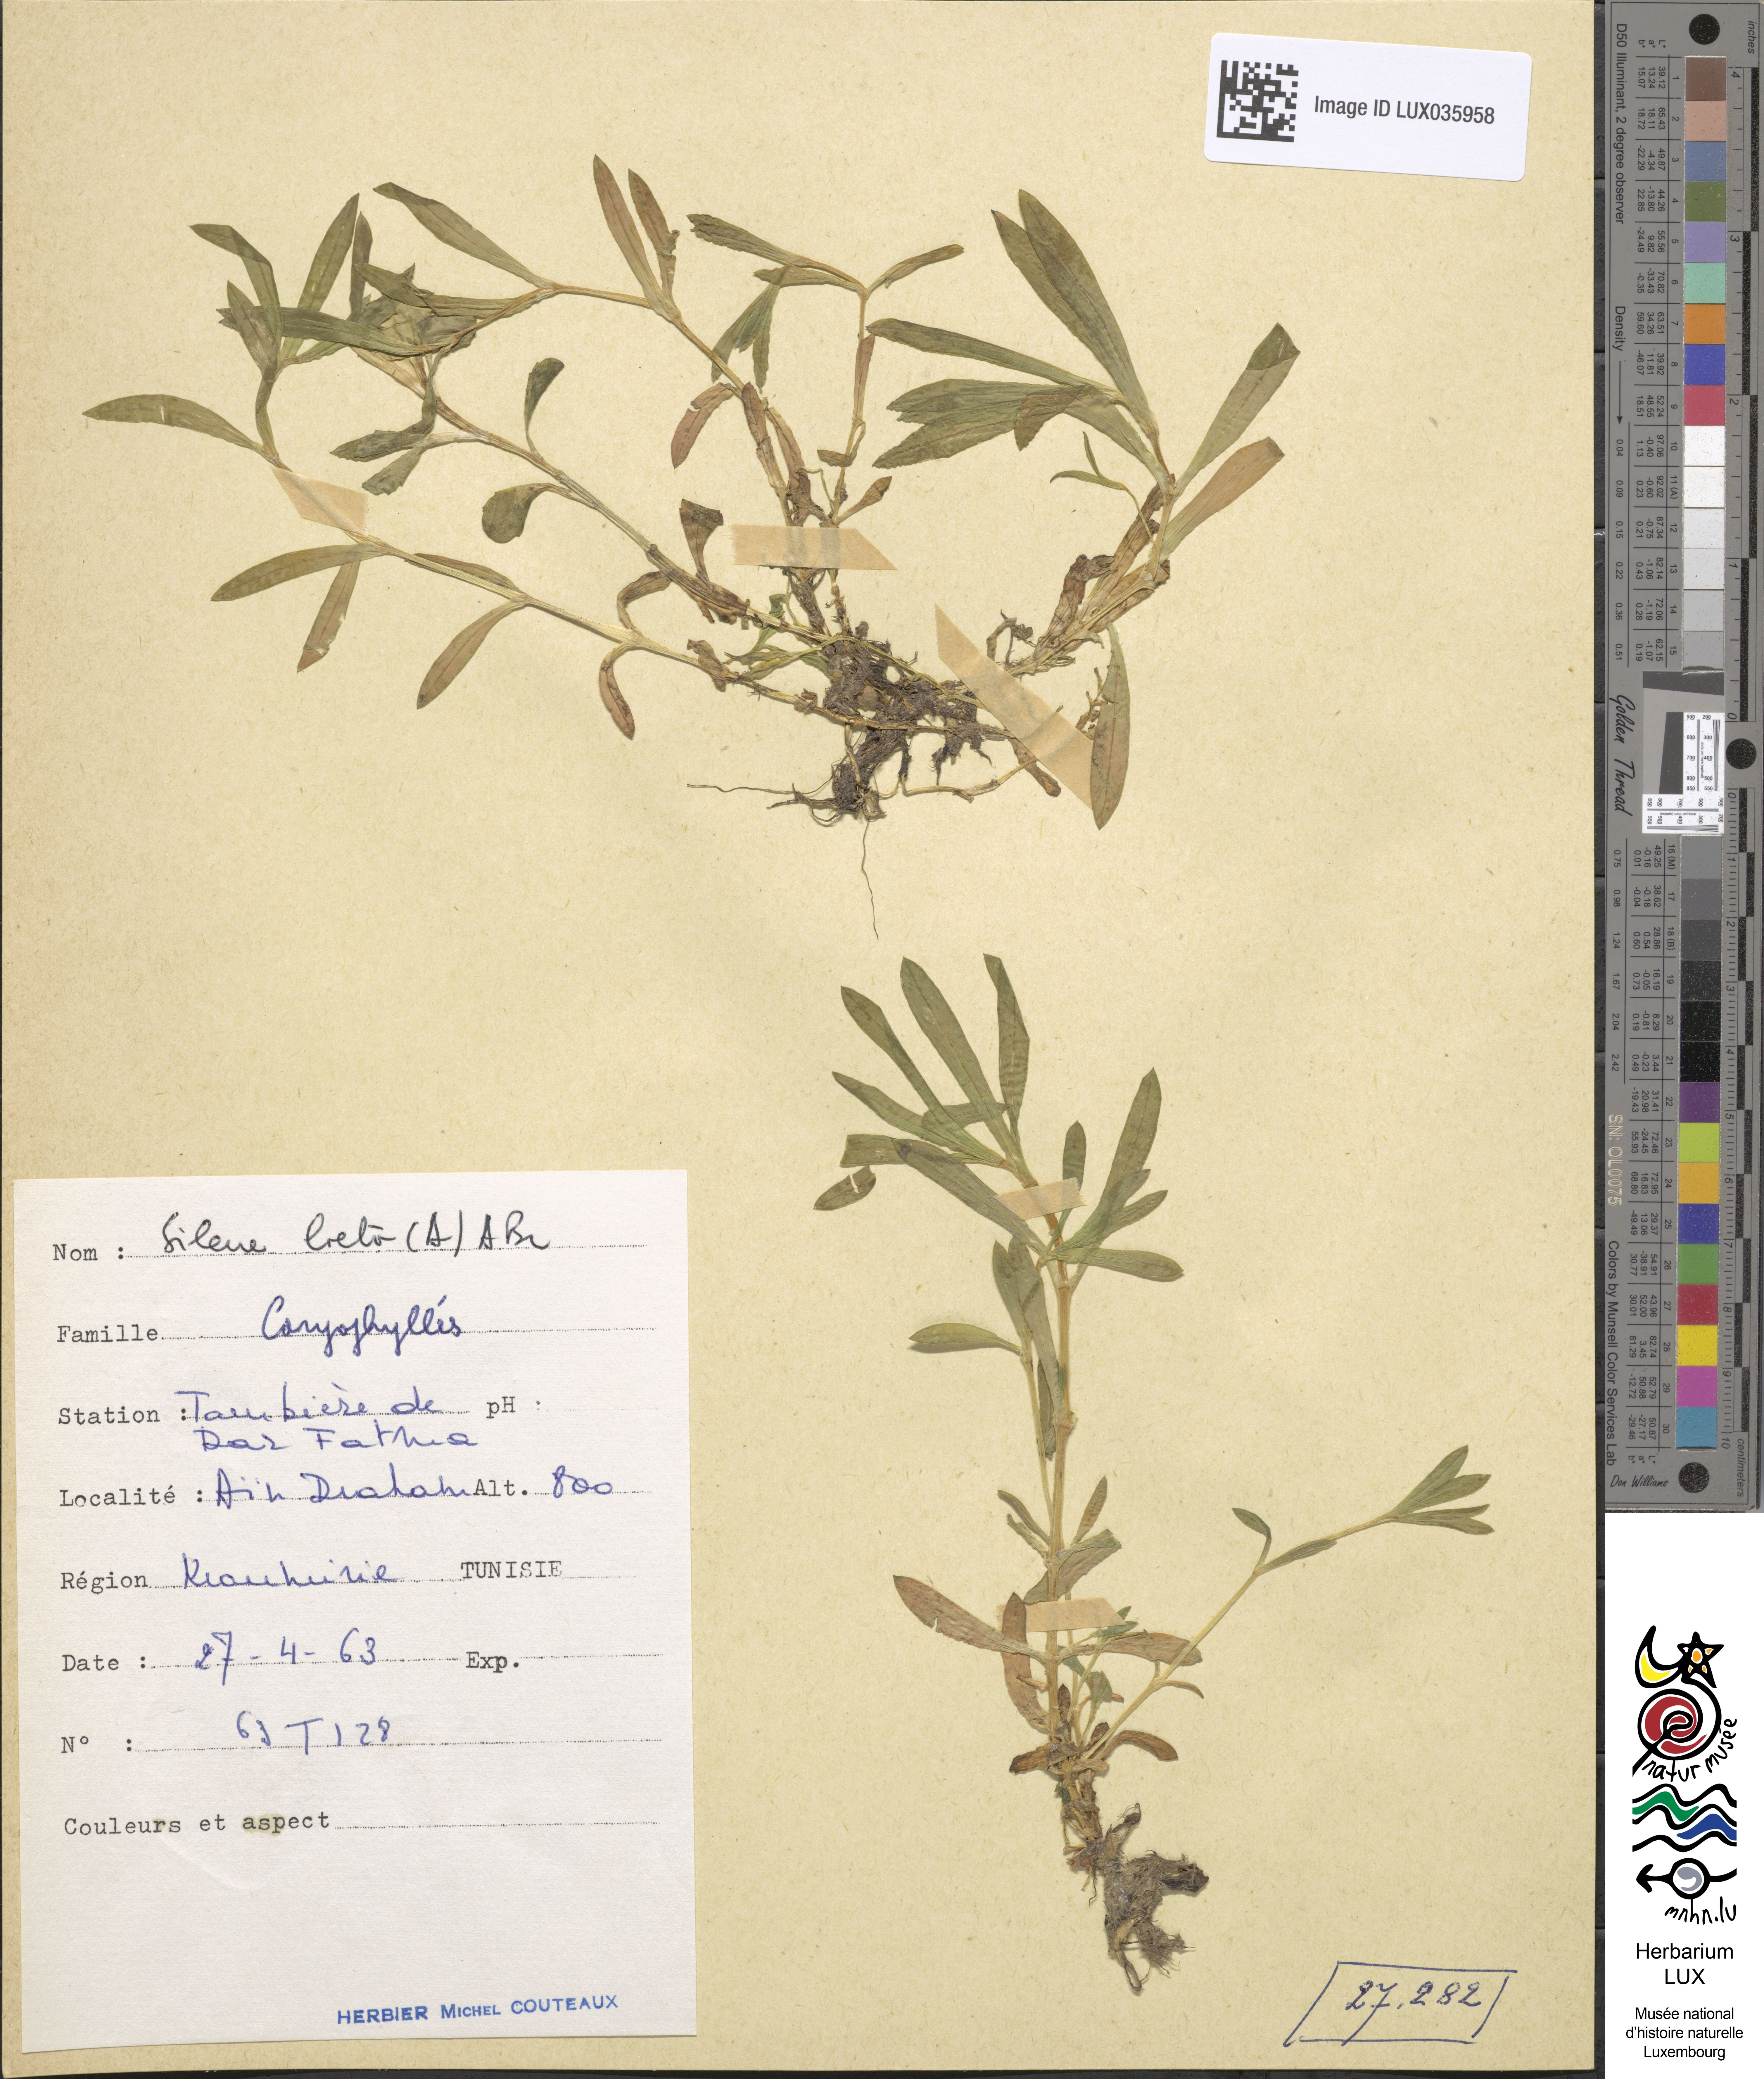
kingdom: Plantae
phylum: Tracheophyta
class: Magnoliopsida
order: Caryophyllales
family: Caryophyllaceae
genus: Eudianthe
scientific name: Eudianthe laeta
